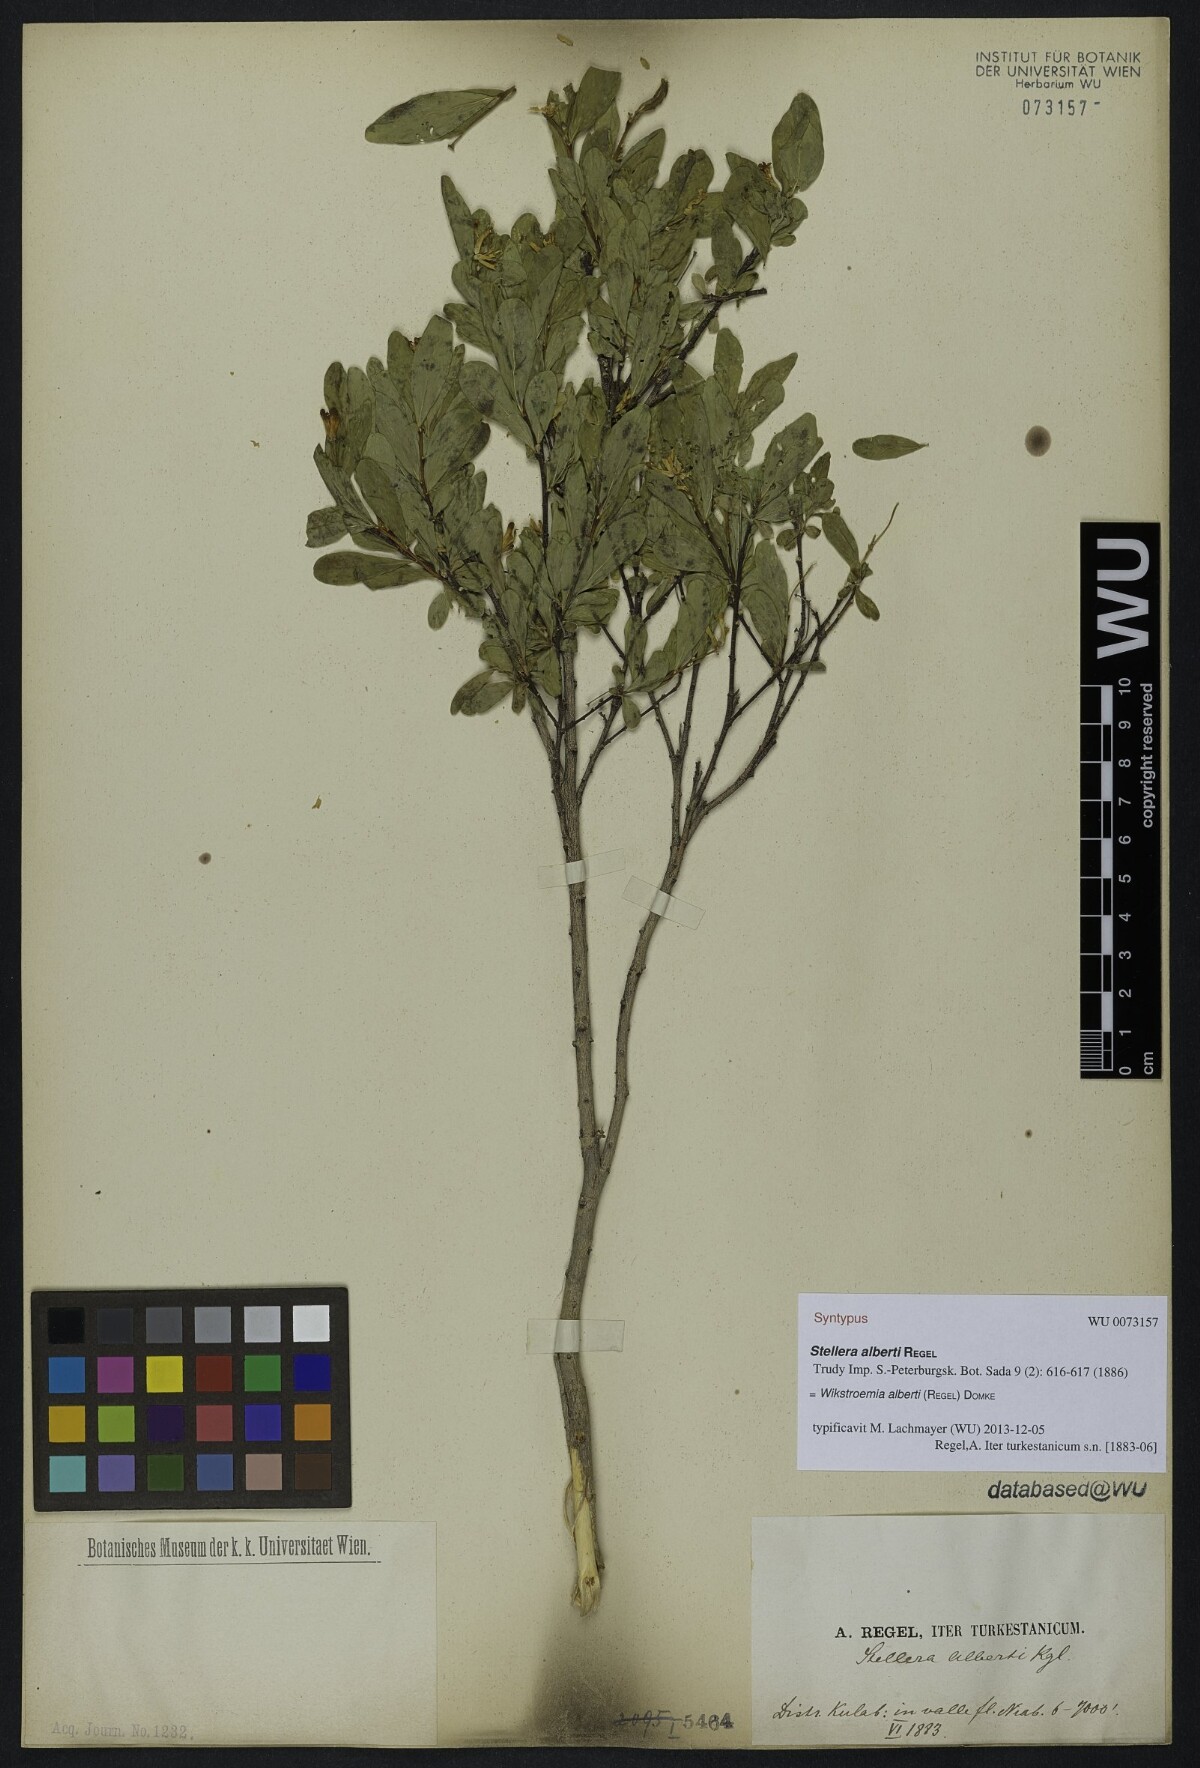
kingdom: Plantae
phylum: Tracheophyta
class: Magnoliopsida
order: Malvales
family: Thymelaeaceae
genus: Wikstroemia
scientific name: Wikstroemia alberti
